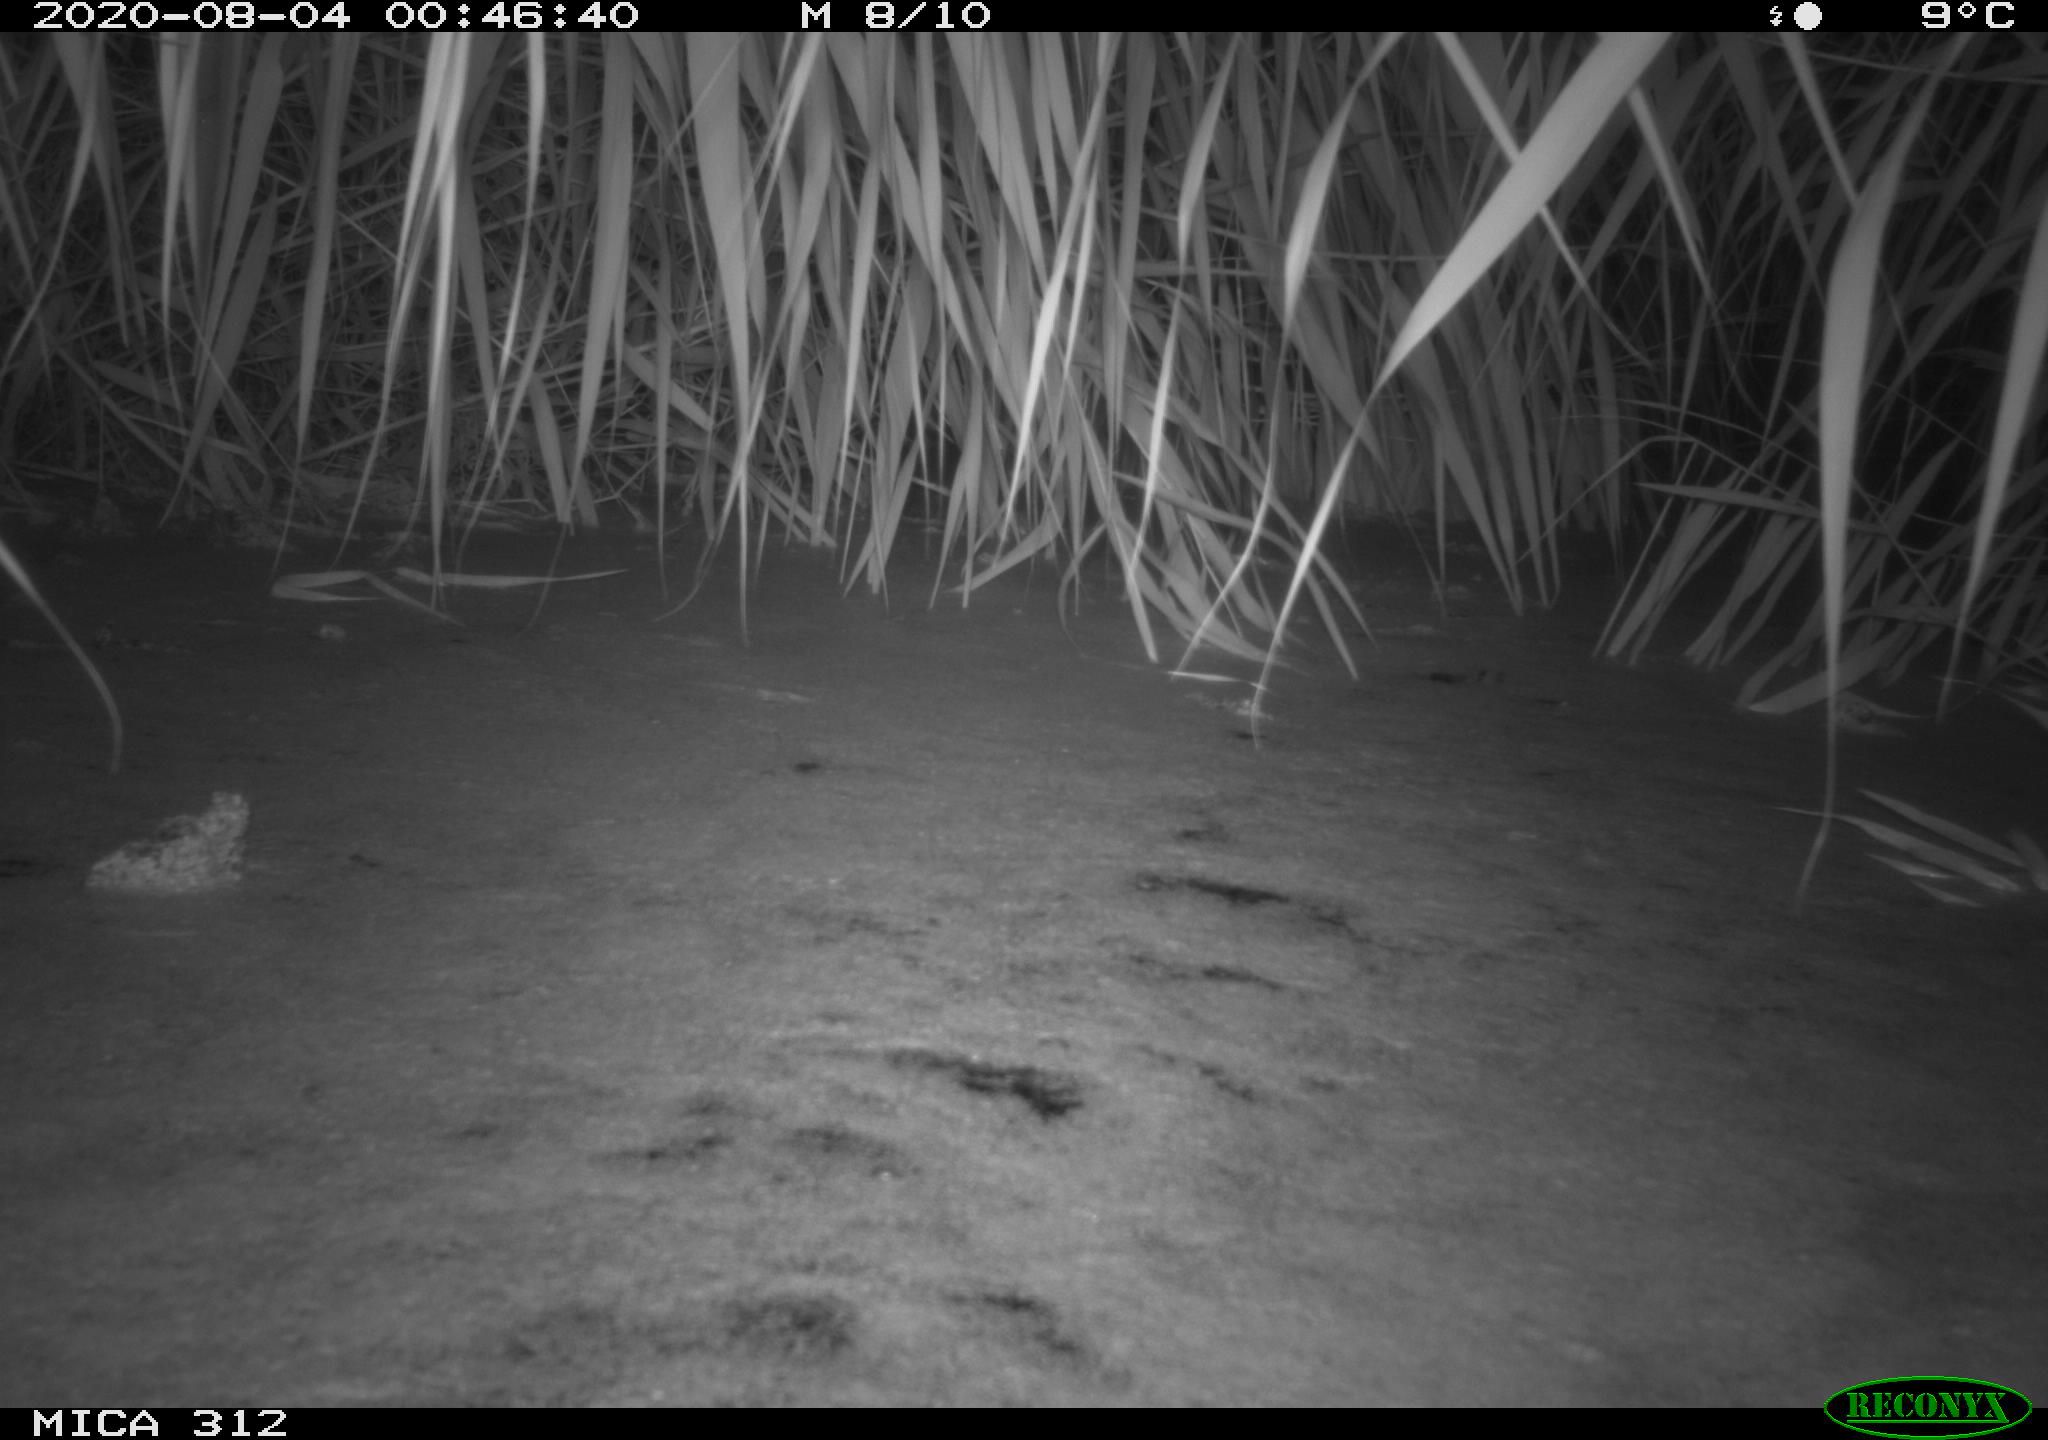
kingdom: Animalia
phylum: Chordata
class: Mammalia
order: Rodentia
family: Muridae
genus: Rattus
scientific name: Rattus norvegicus
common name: Brown rat
